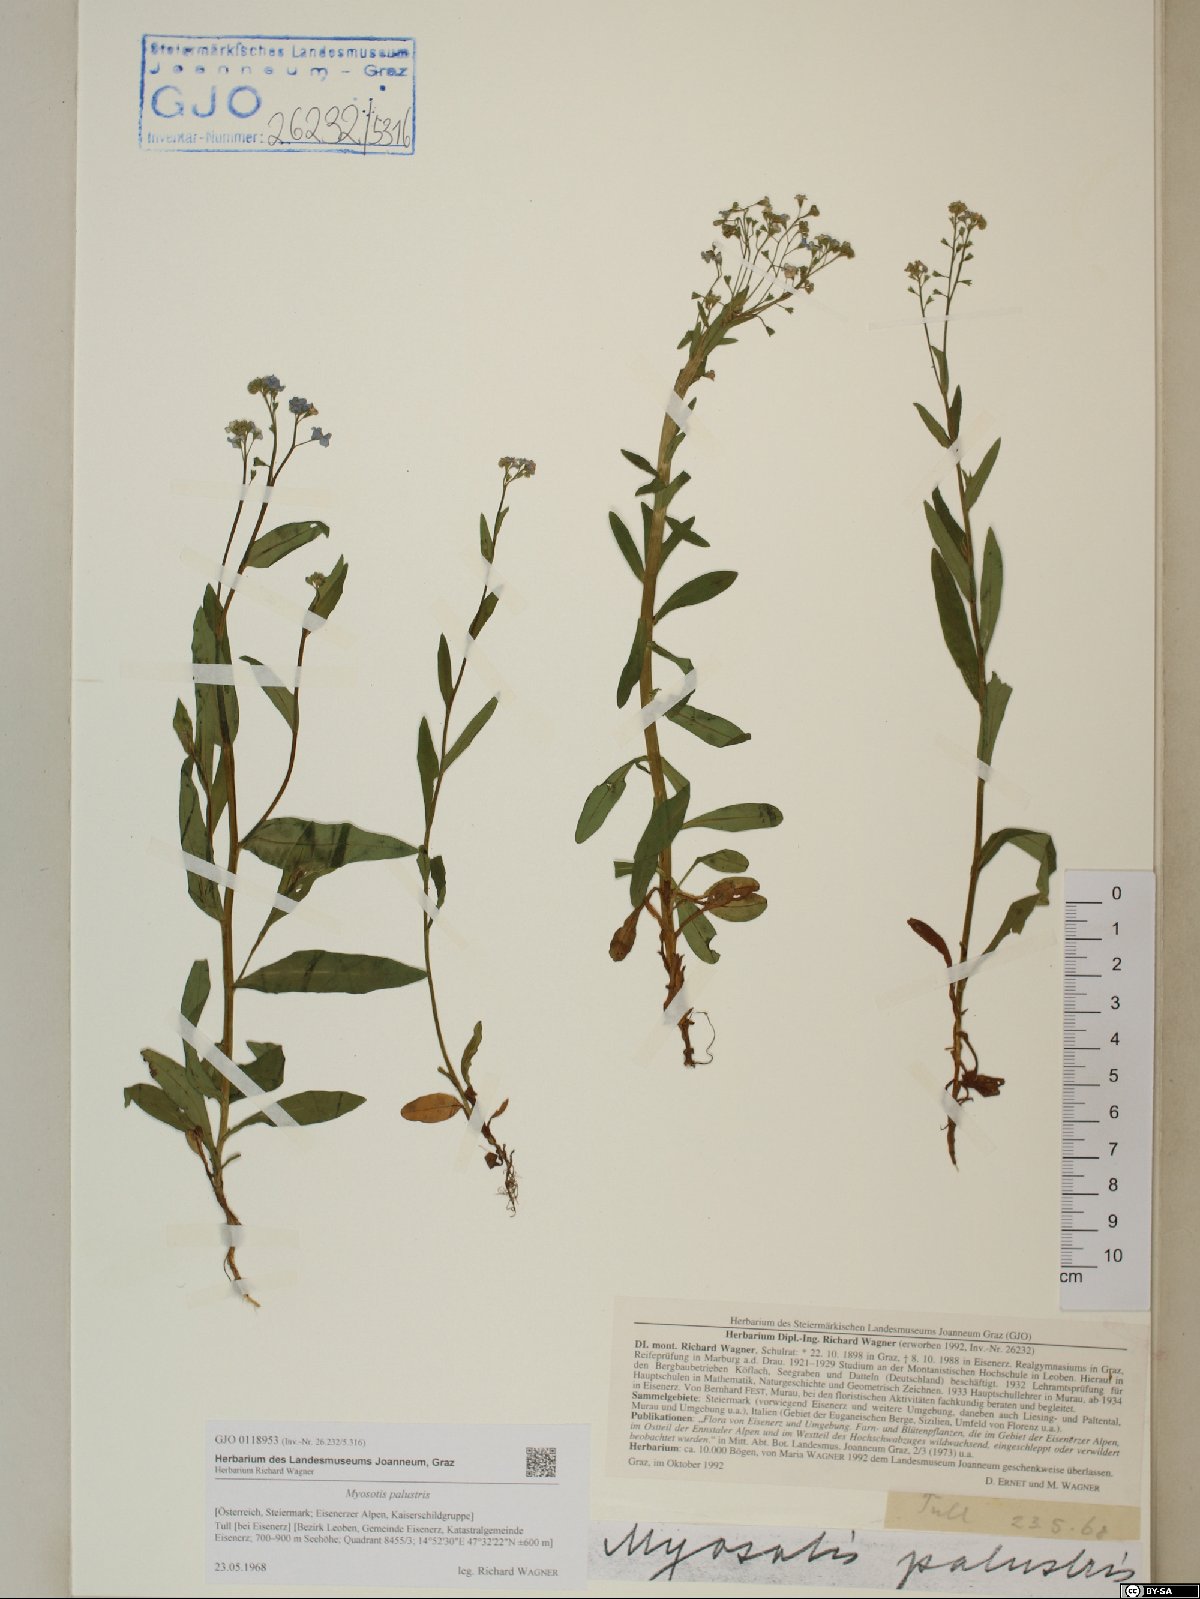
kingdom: Plantae
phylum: Tracheophyta
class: Magnoliopsida
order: Boraginales
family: Boraginaceae
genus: Myosotis
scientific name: Myosotis scorpioides
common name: Water forget-me-not
